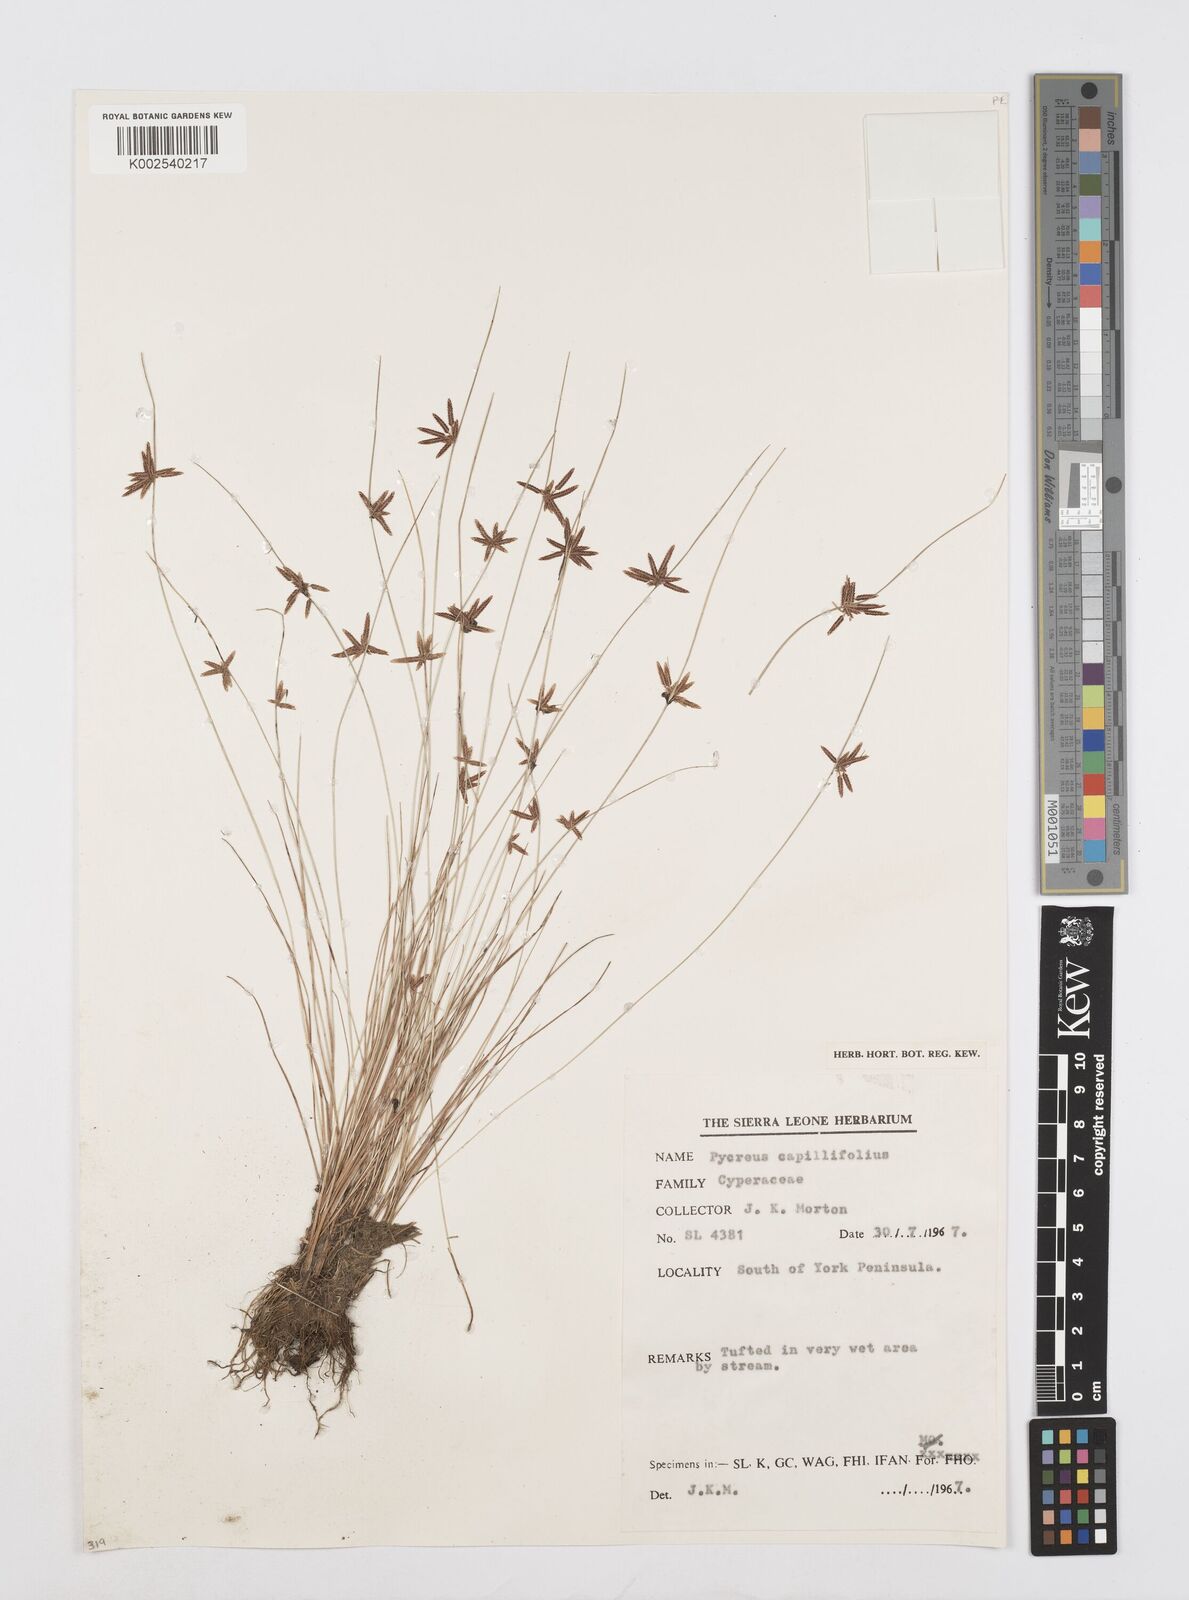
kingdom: Plantae
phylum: Tracheophyta
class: Liliopsida
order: Poales
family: Cyperaceae
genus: Cyperus
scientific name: Cyperus capillifolius
